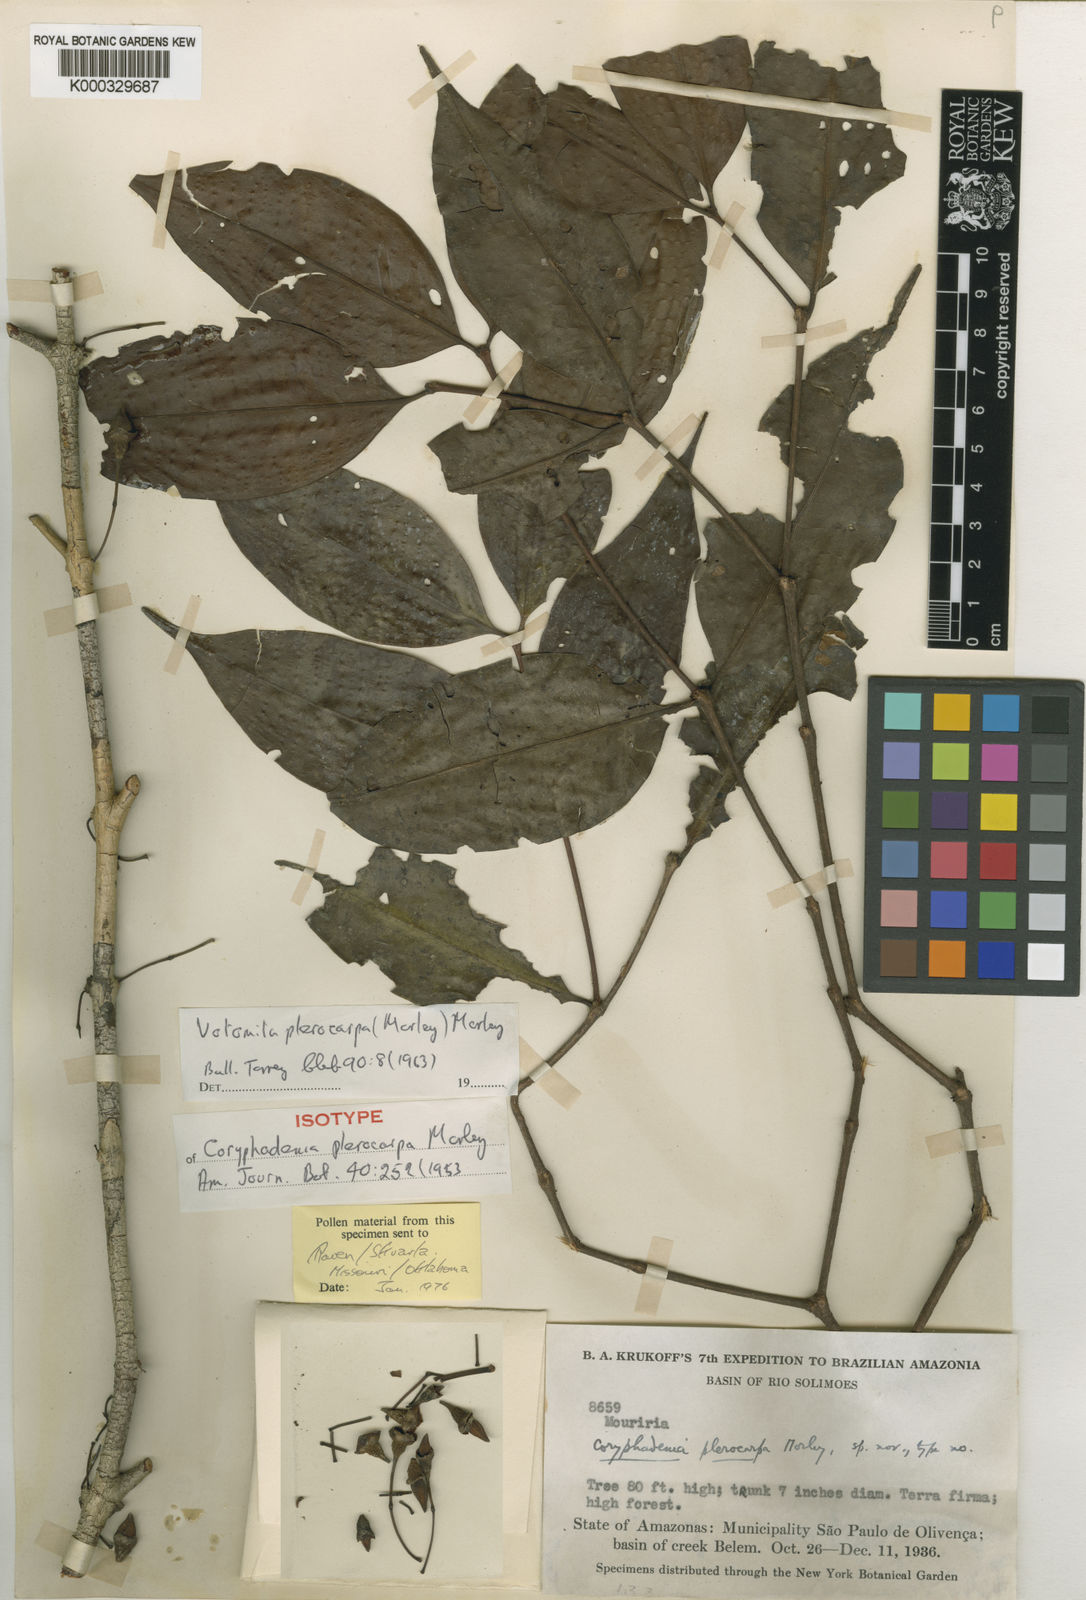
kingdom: Plantae
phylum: Tracheophyta
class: Magnoliopsida
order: Myrtales
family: Melastomataceae
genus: Votomita
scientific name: Votomita plerocarpa
